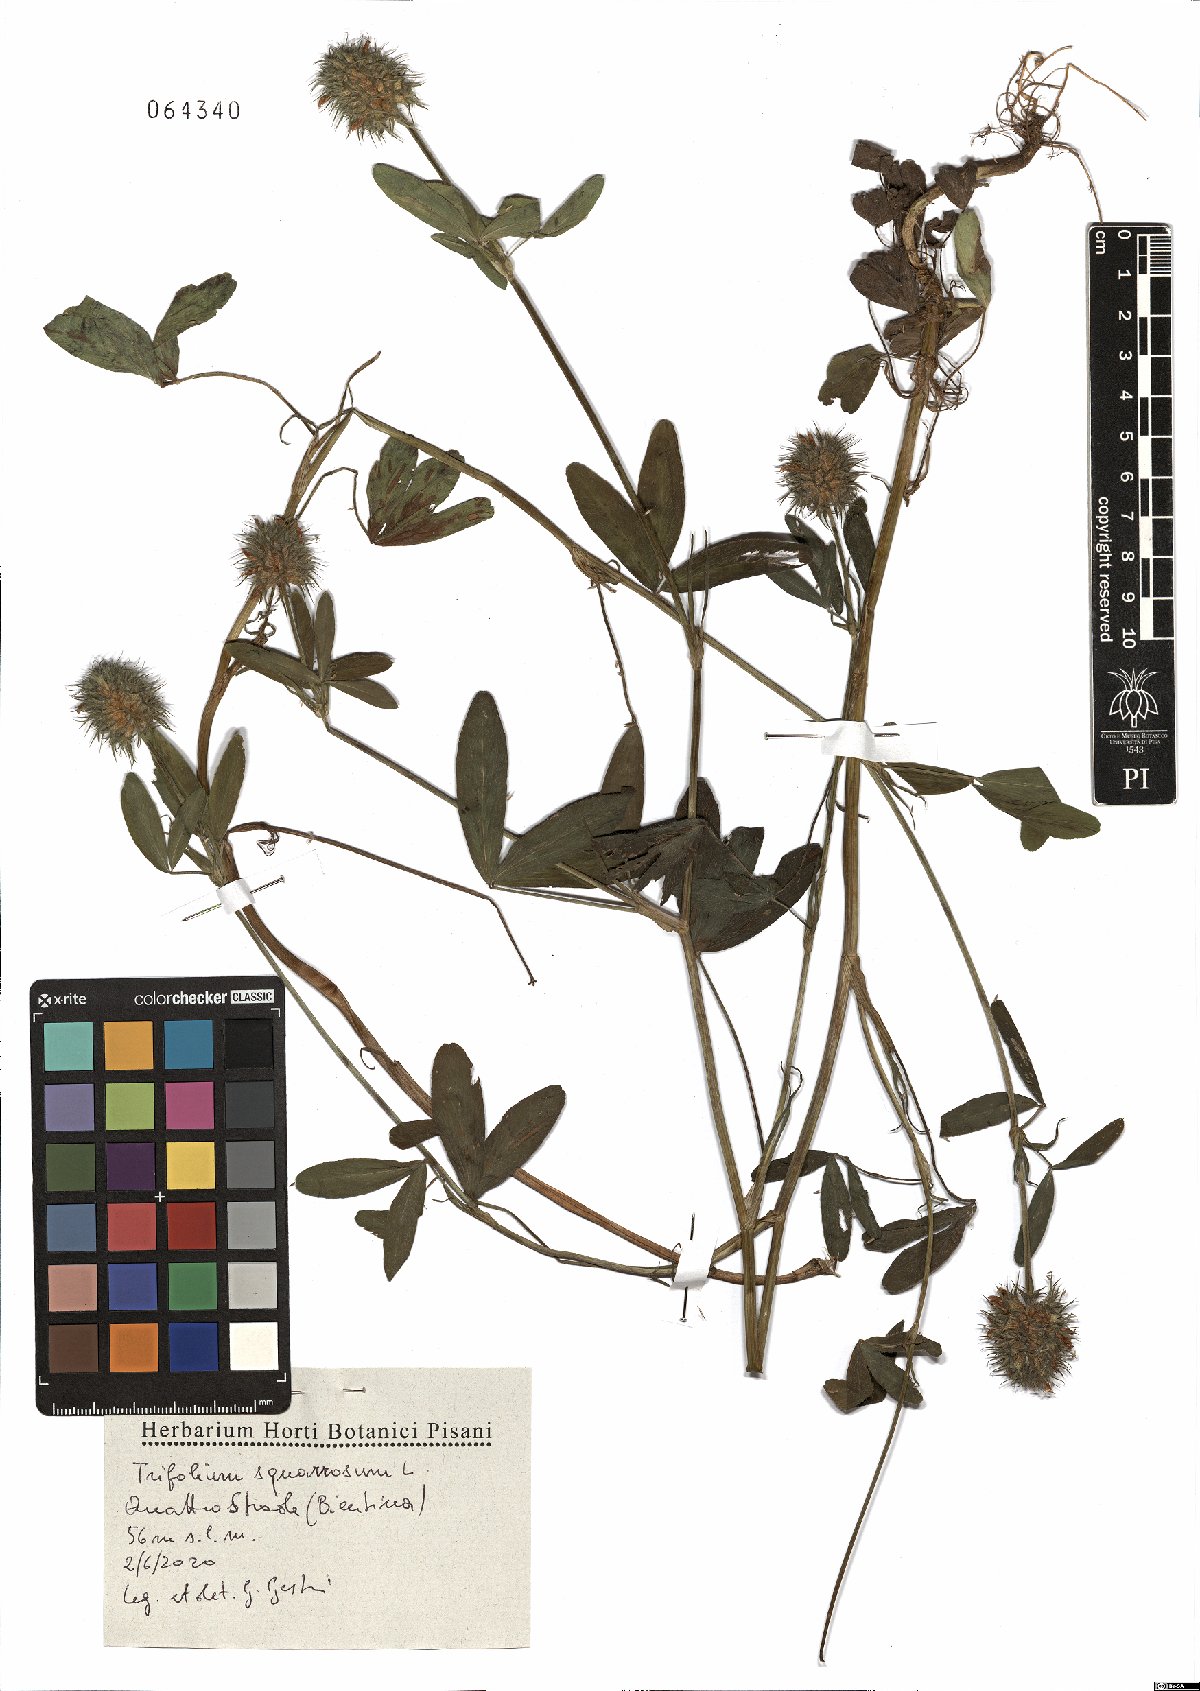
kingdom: Plantae
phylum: Tracheophyta
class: Magnoliopsida
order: Fabales
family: Fabaceae
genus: Trifolium
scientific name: Trifolium squarrosum
